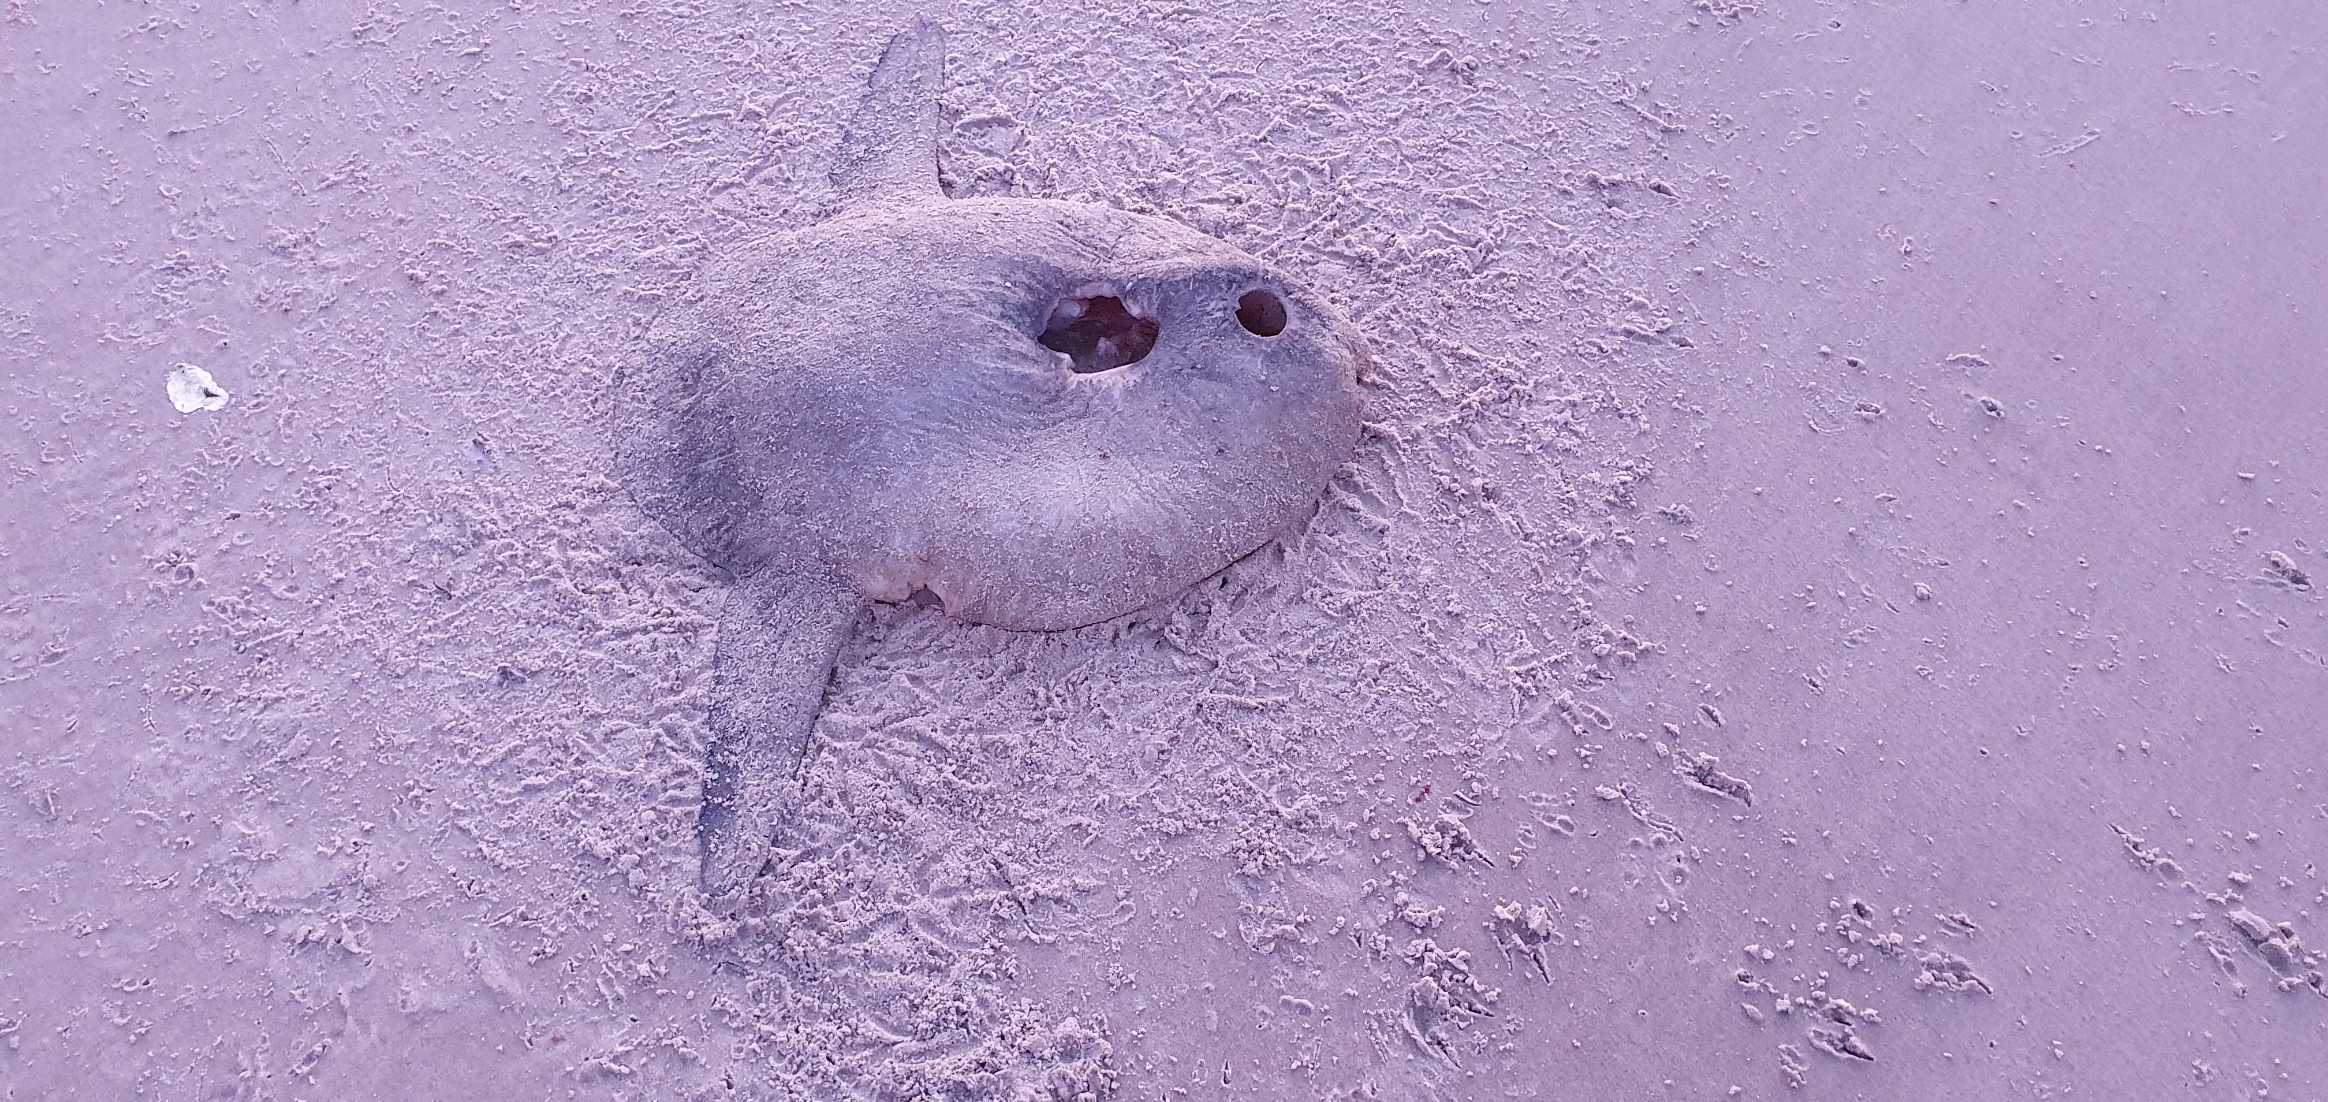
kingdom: Animalia
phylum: Chordata
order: Tetraodontiformes
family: Molidae
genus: Mola
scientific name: Mola mola
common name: Klumpfisk
